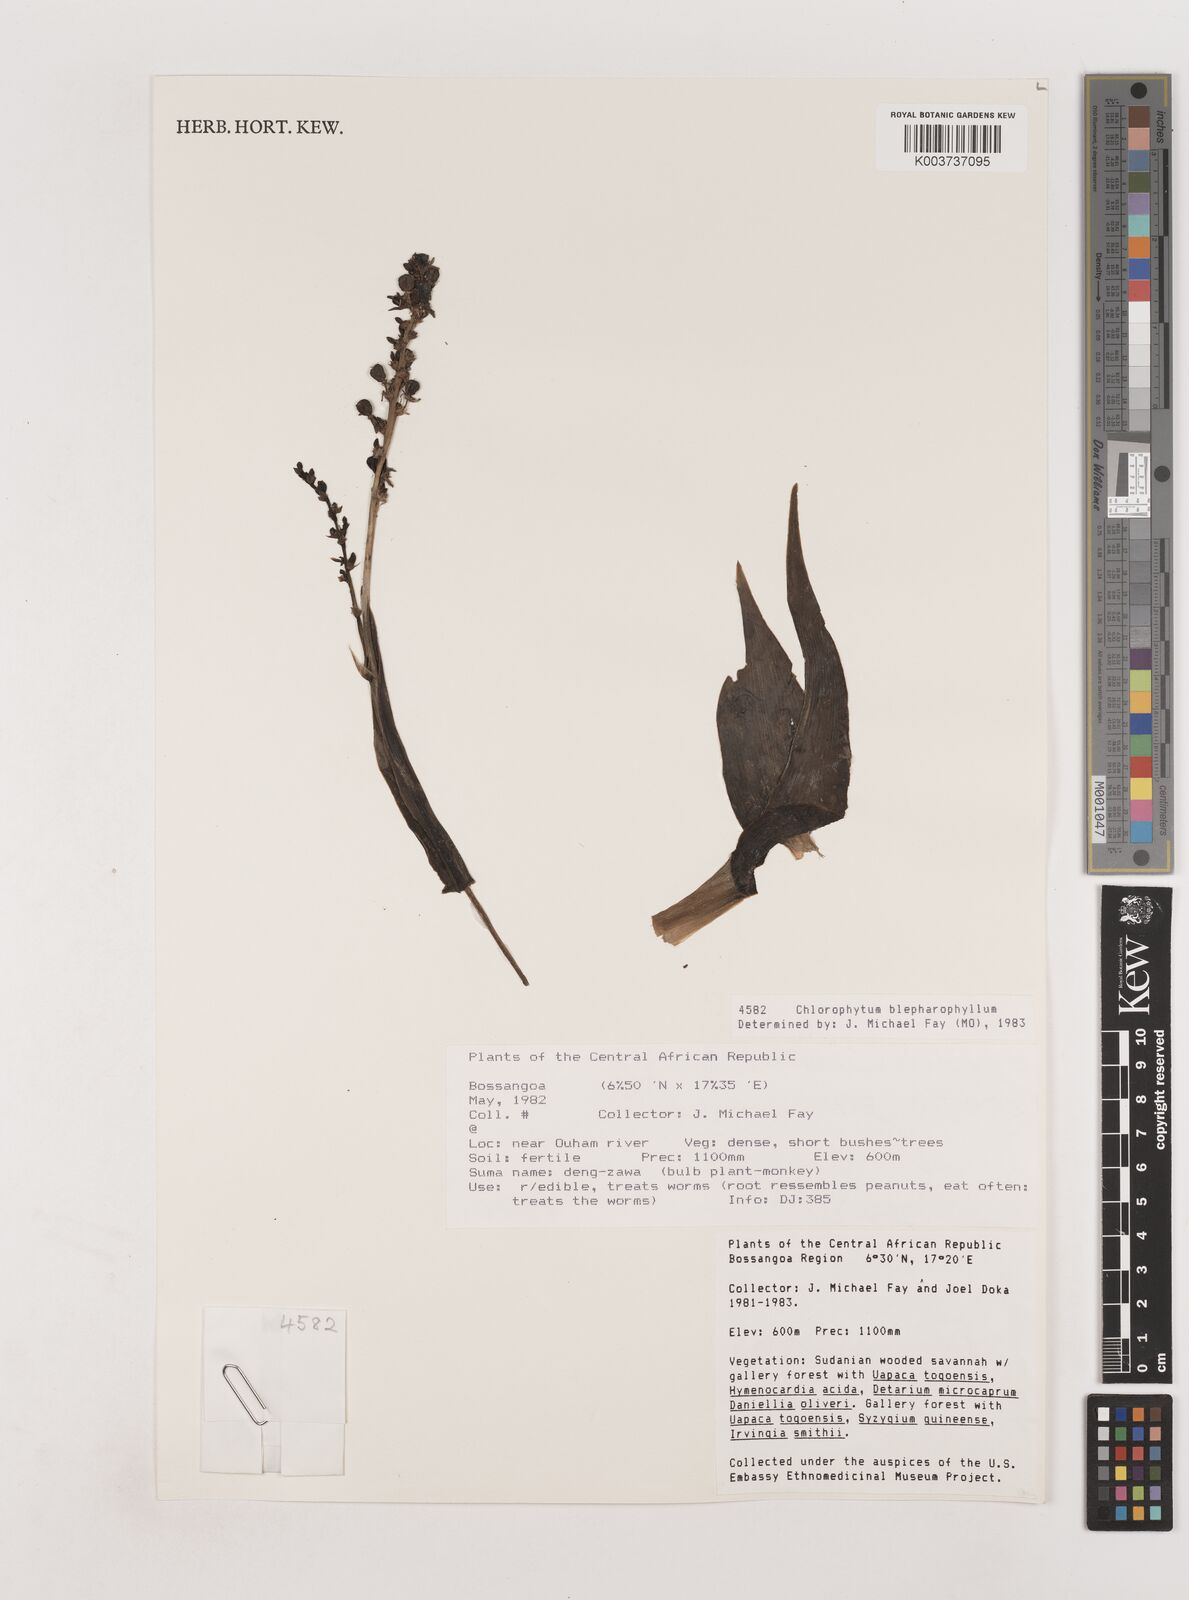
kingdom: Plantae
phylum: Tracheophyta
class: Liliopsida
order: Asparagales
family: Asparagaceae
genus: Chlorophytum
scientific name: Chlorophytum blepharophyllum
